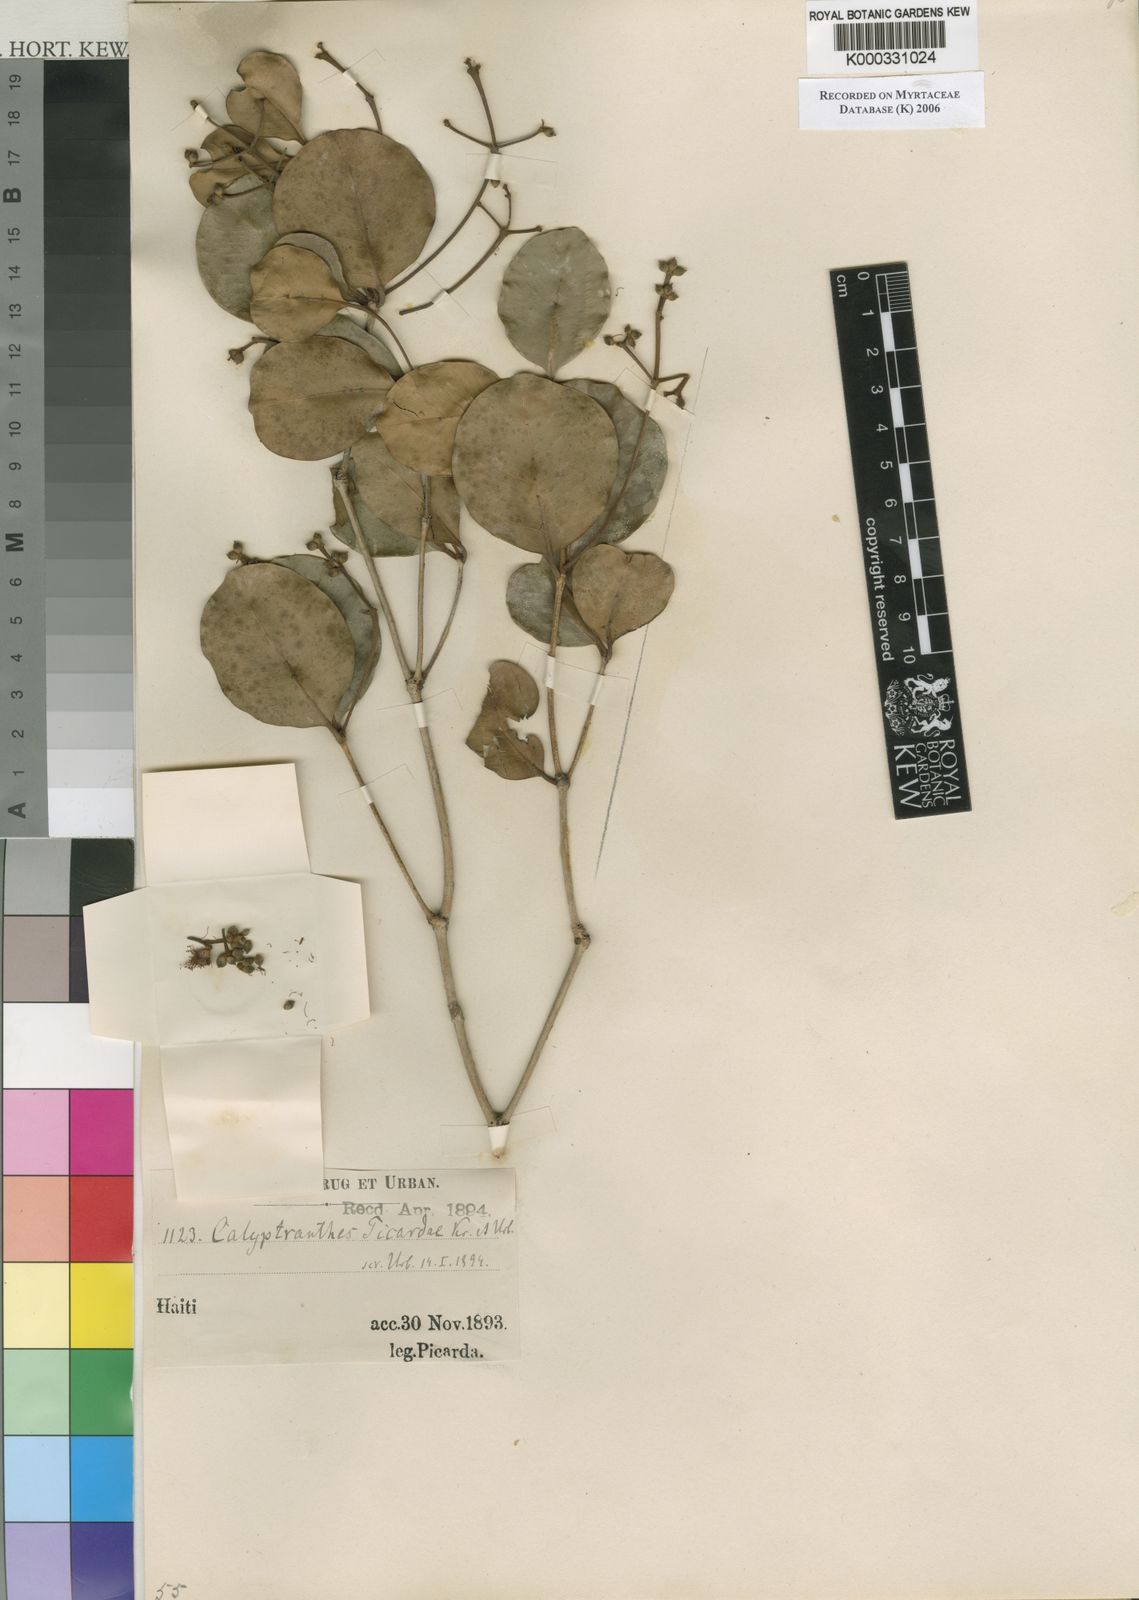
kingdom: Plantae
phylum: Tracheophyta
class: Magnoliopsida
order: Myrtales
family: Myrtaceae
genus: Myrcia
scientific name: Myrcia neopicardae
